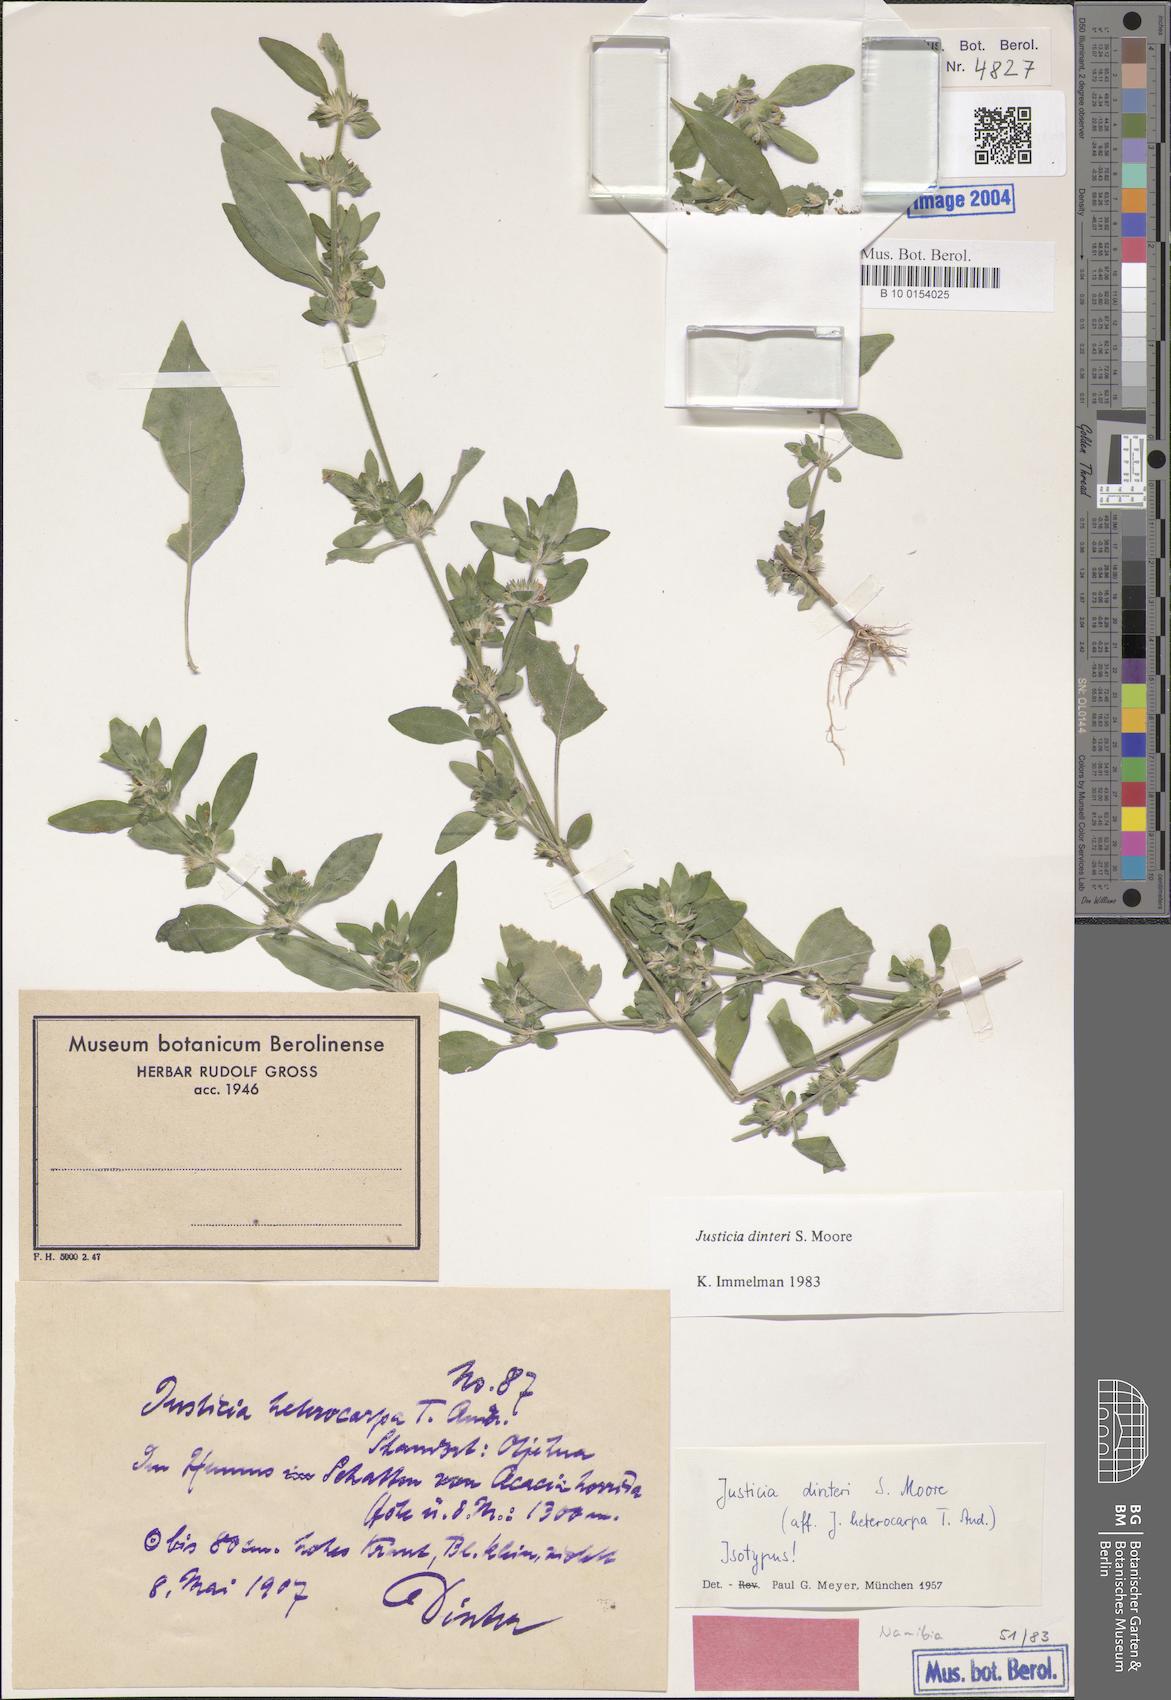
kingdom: Plantae
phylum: Tracheophyta
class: Magnoliopsida
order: Lamiales
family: Acanthaceae
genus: Justicia
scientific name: Justicia heterocarpa
